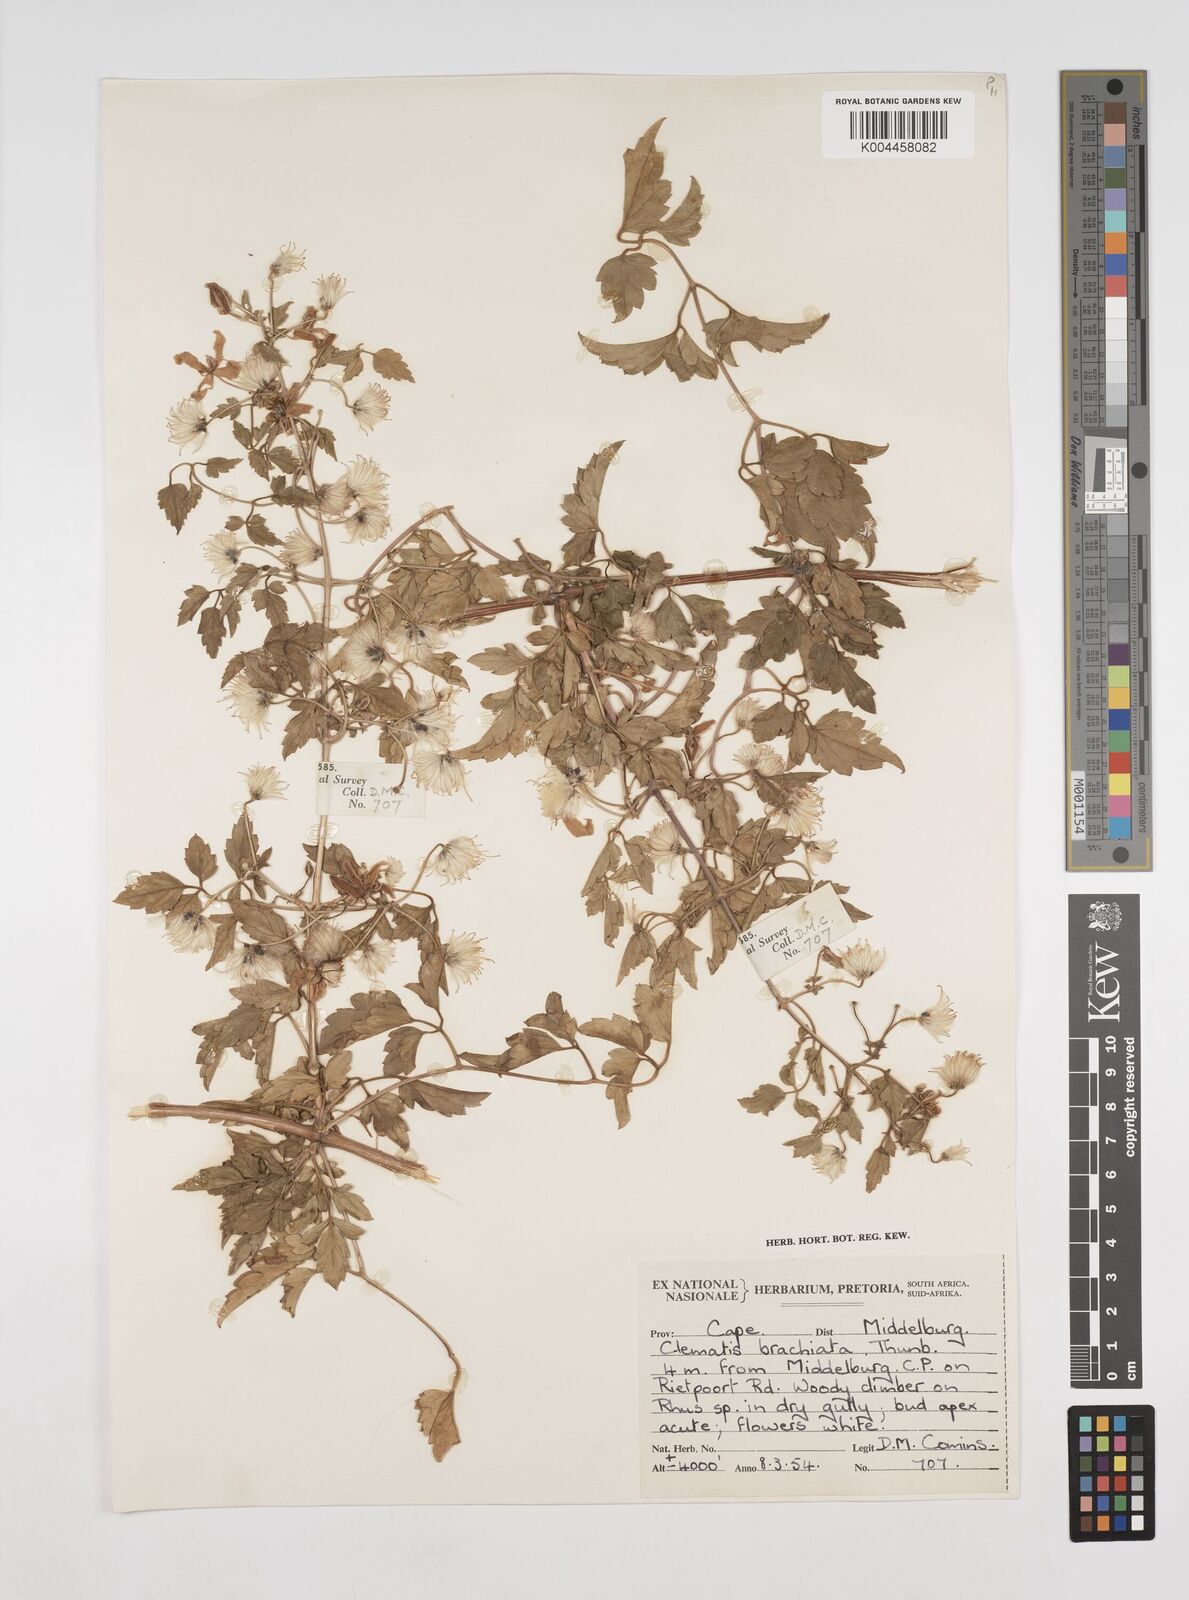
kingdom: Plantae
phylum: Tracheophyta
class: Magnoliopsida
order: Ranunculales
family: Ranunculaceae
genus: Clematis
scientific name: Clematis brachiata
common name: Traveler's-joy
